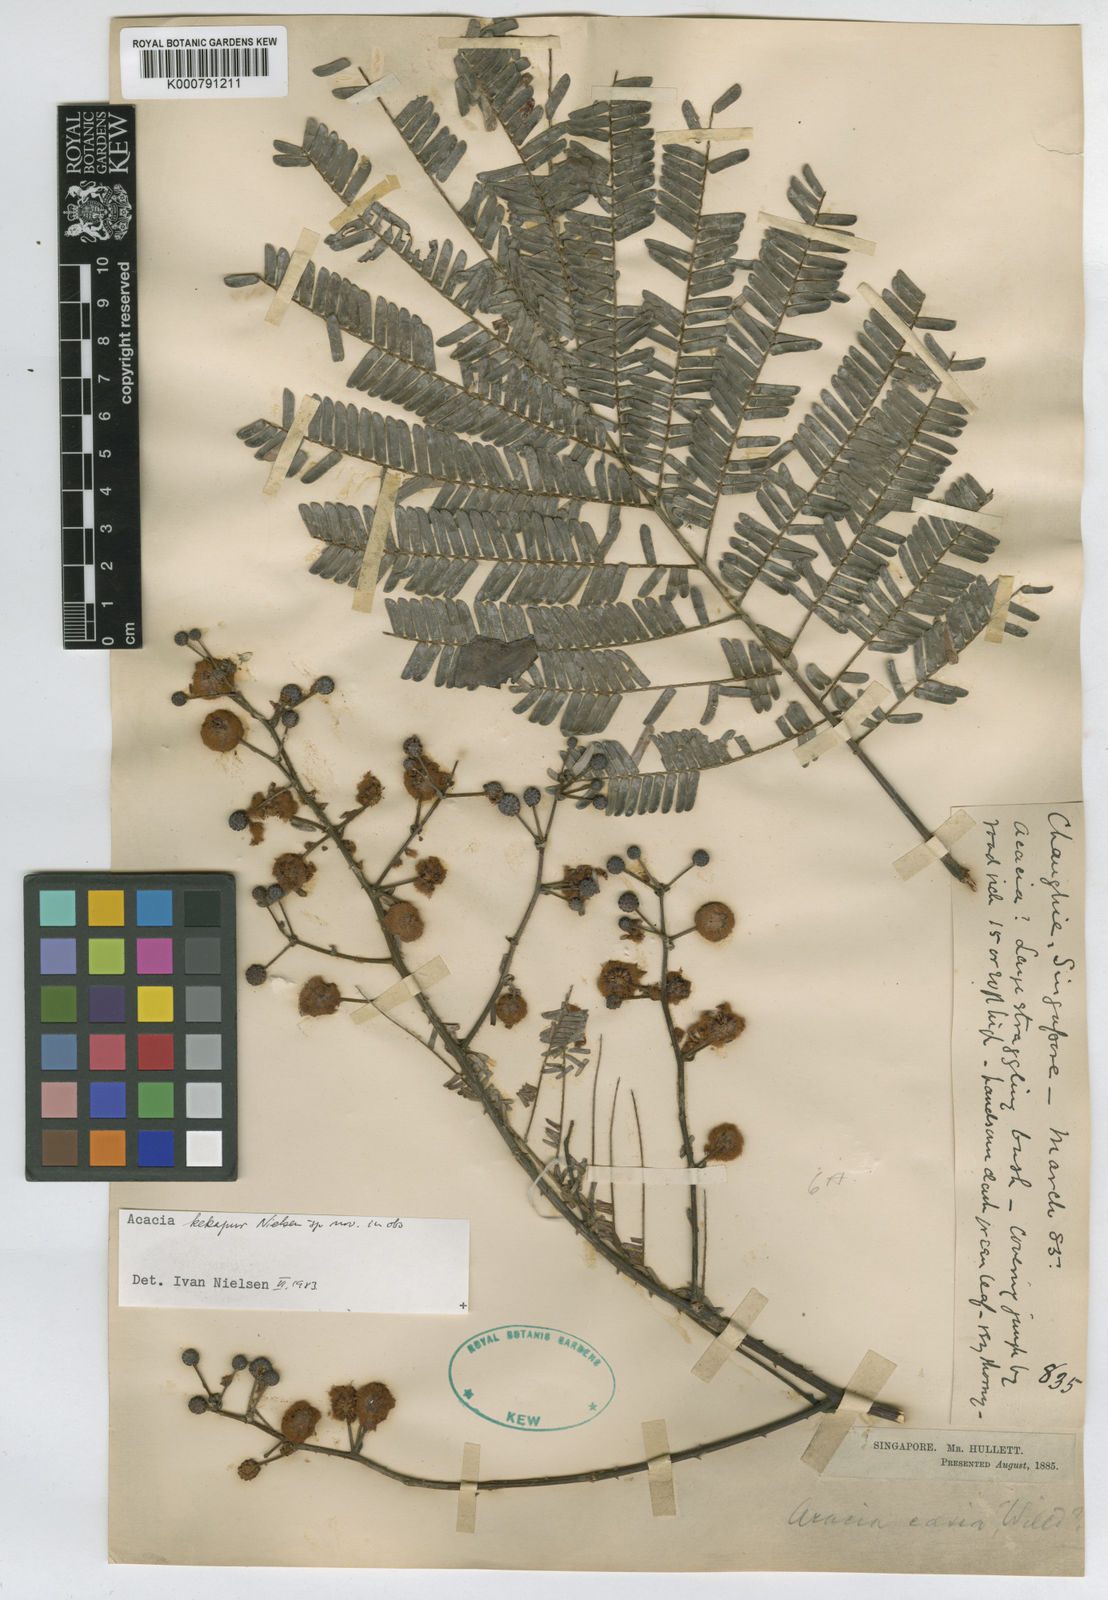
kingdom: Plantae
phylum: Tracheophyta
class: Magnoliopsida
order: Fabales
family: Fabaceae
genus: Senegalia
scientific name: Senegalia kekapur
